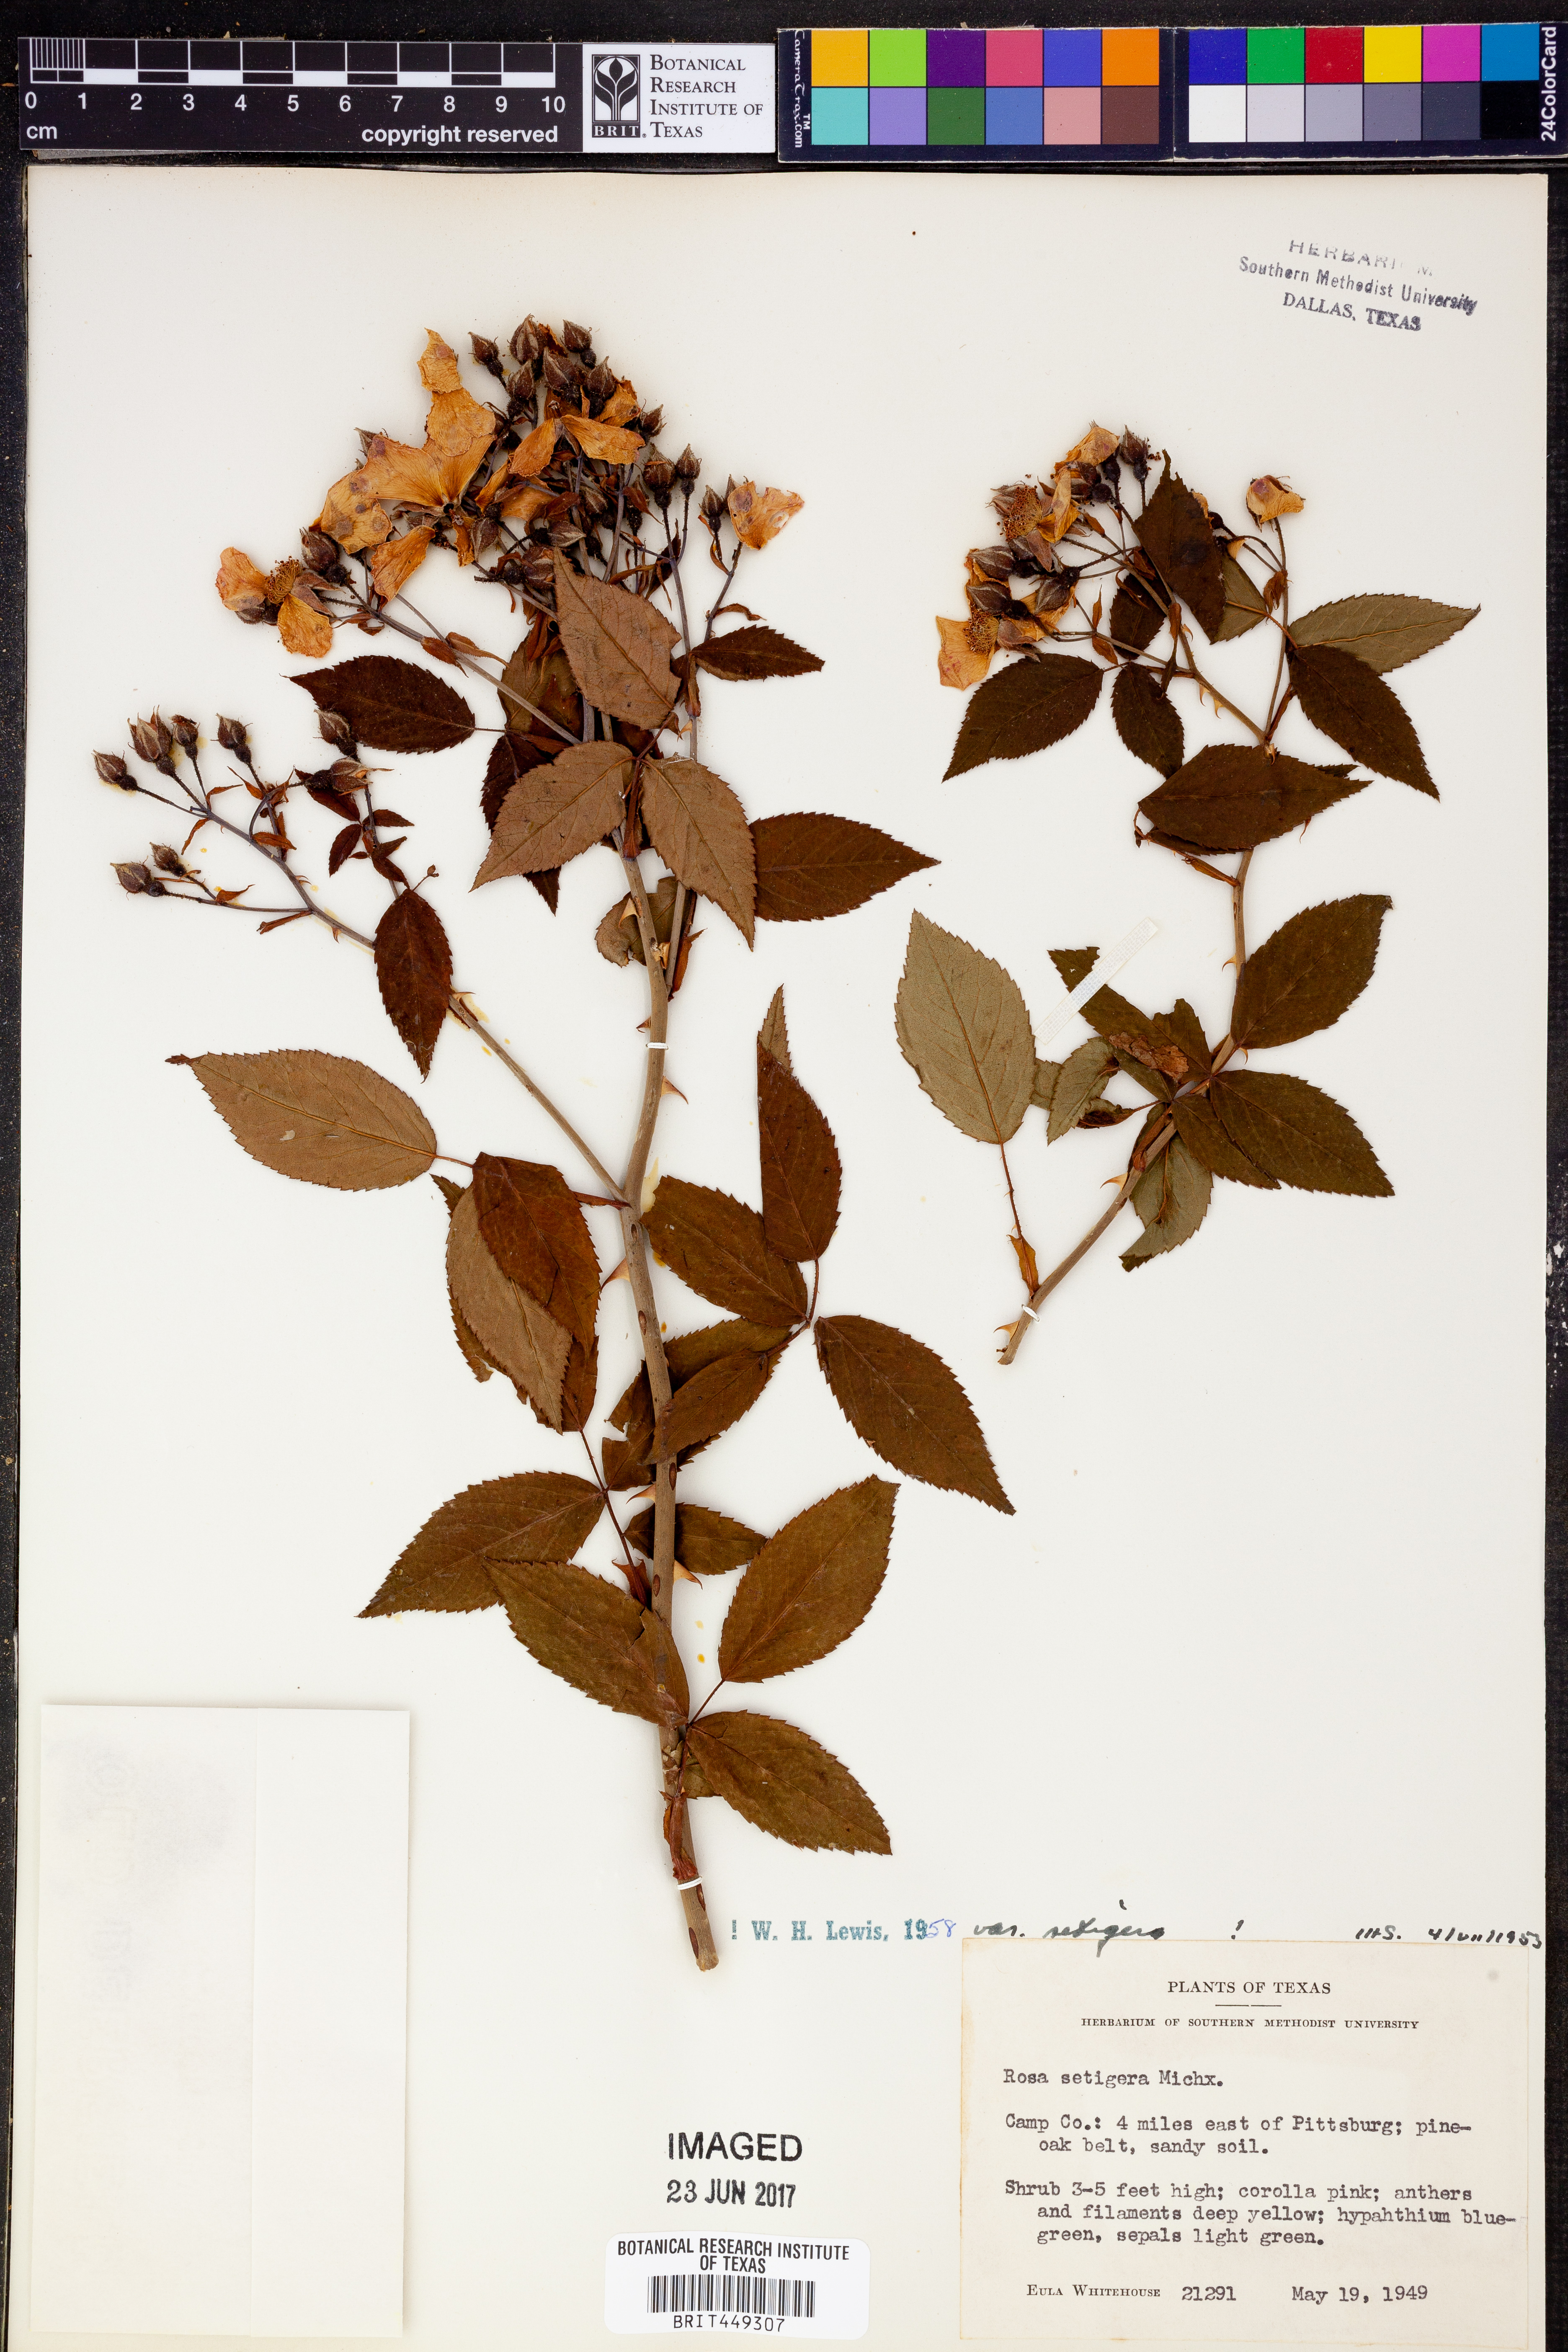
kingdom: Plantae
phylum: Tracheophyta
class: Magnoliopsida
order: Rosales
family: Rosaceae
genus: Rosa
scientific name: Rosa setigera
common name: Prairie rose
